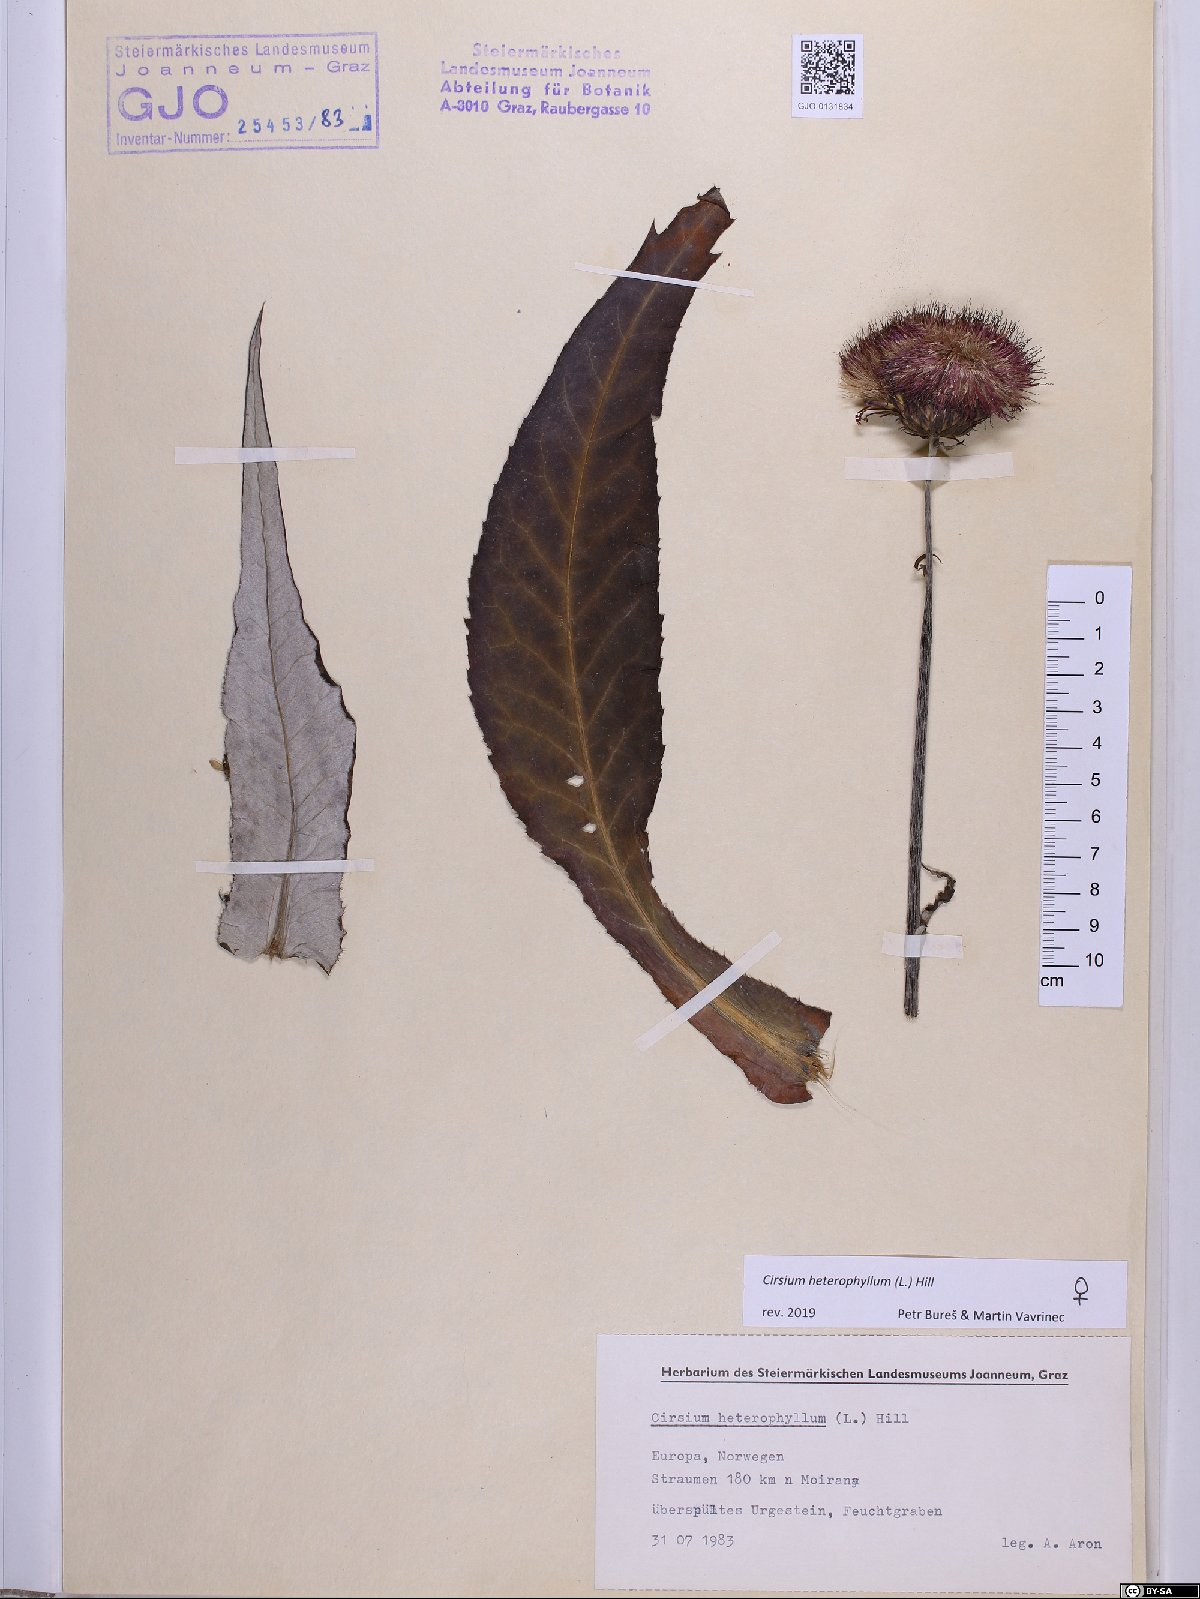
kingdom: Plantae
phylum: Tracheophyta
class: Magnoliopsida
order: Asterales
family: Asteraceae
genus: Cirsium
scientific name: Cirsium heterophyllum
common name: Melancholy thistle
